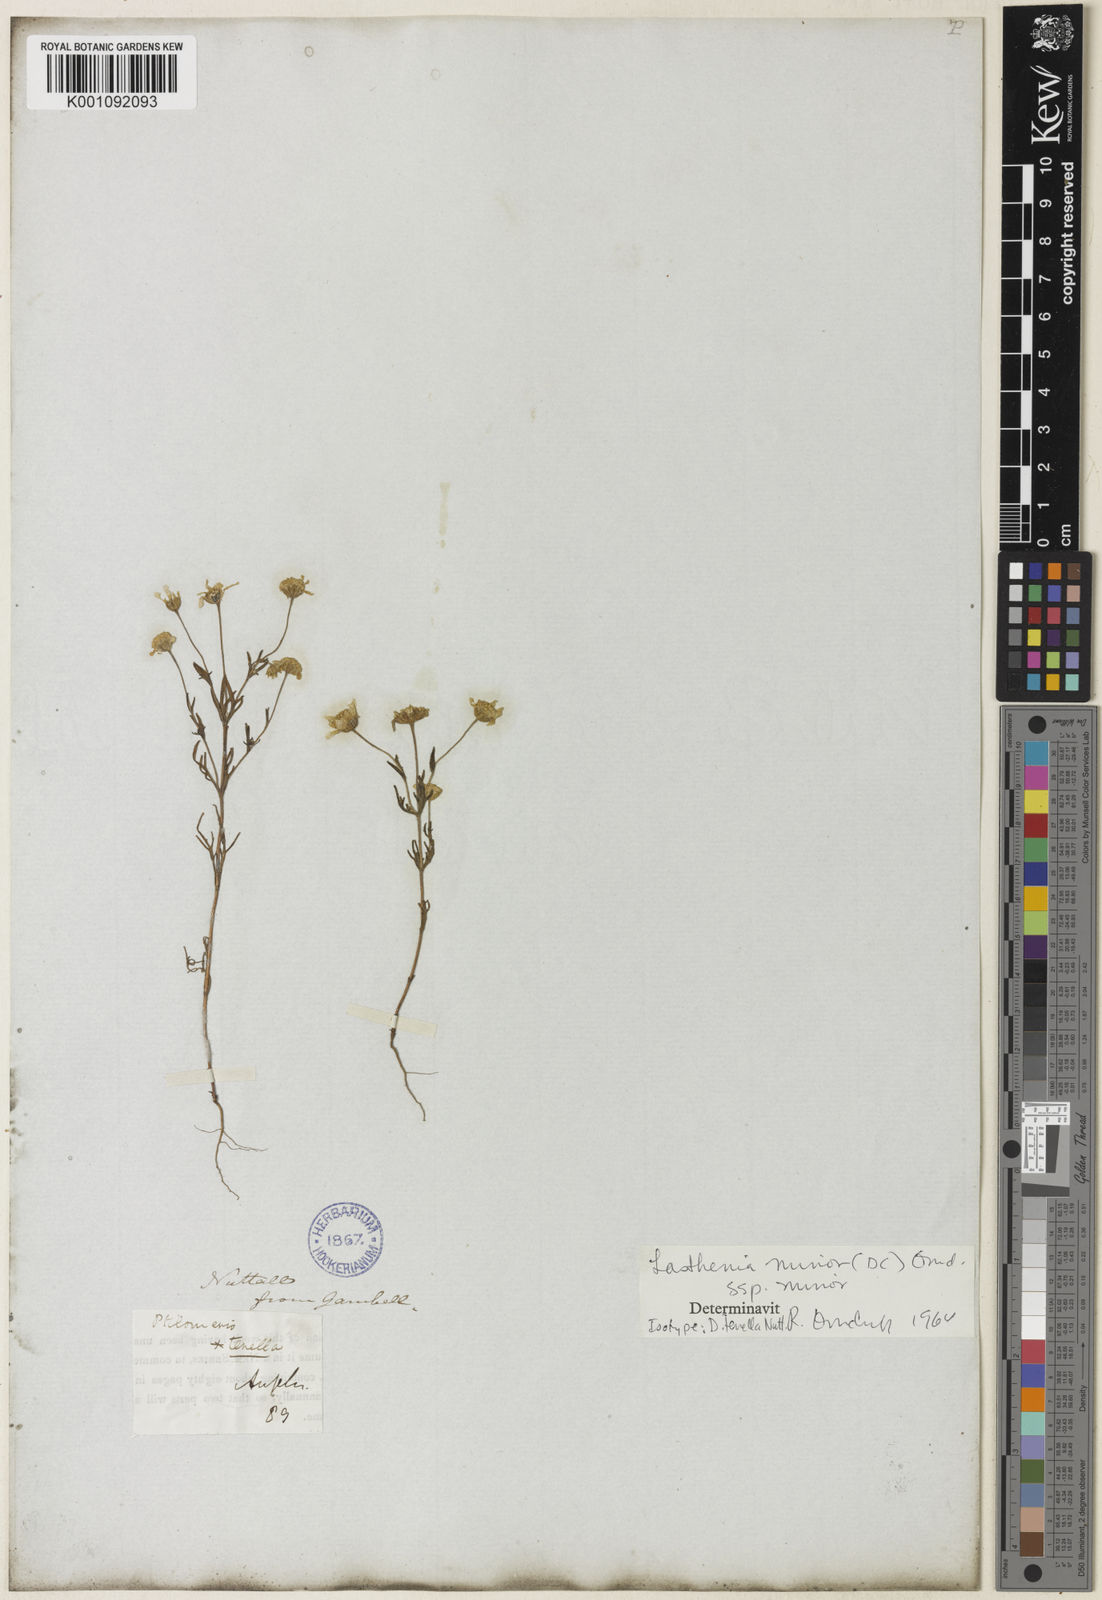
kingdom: Plantae
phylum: Tracheophyta
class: Magnoliopsida
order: Asterales
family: Asteraceae
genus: Lasthenia
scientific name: Lasthenia minor
